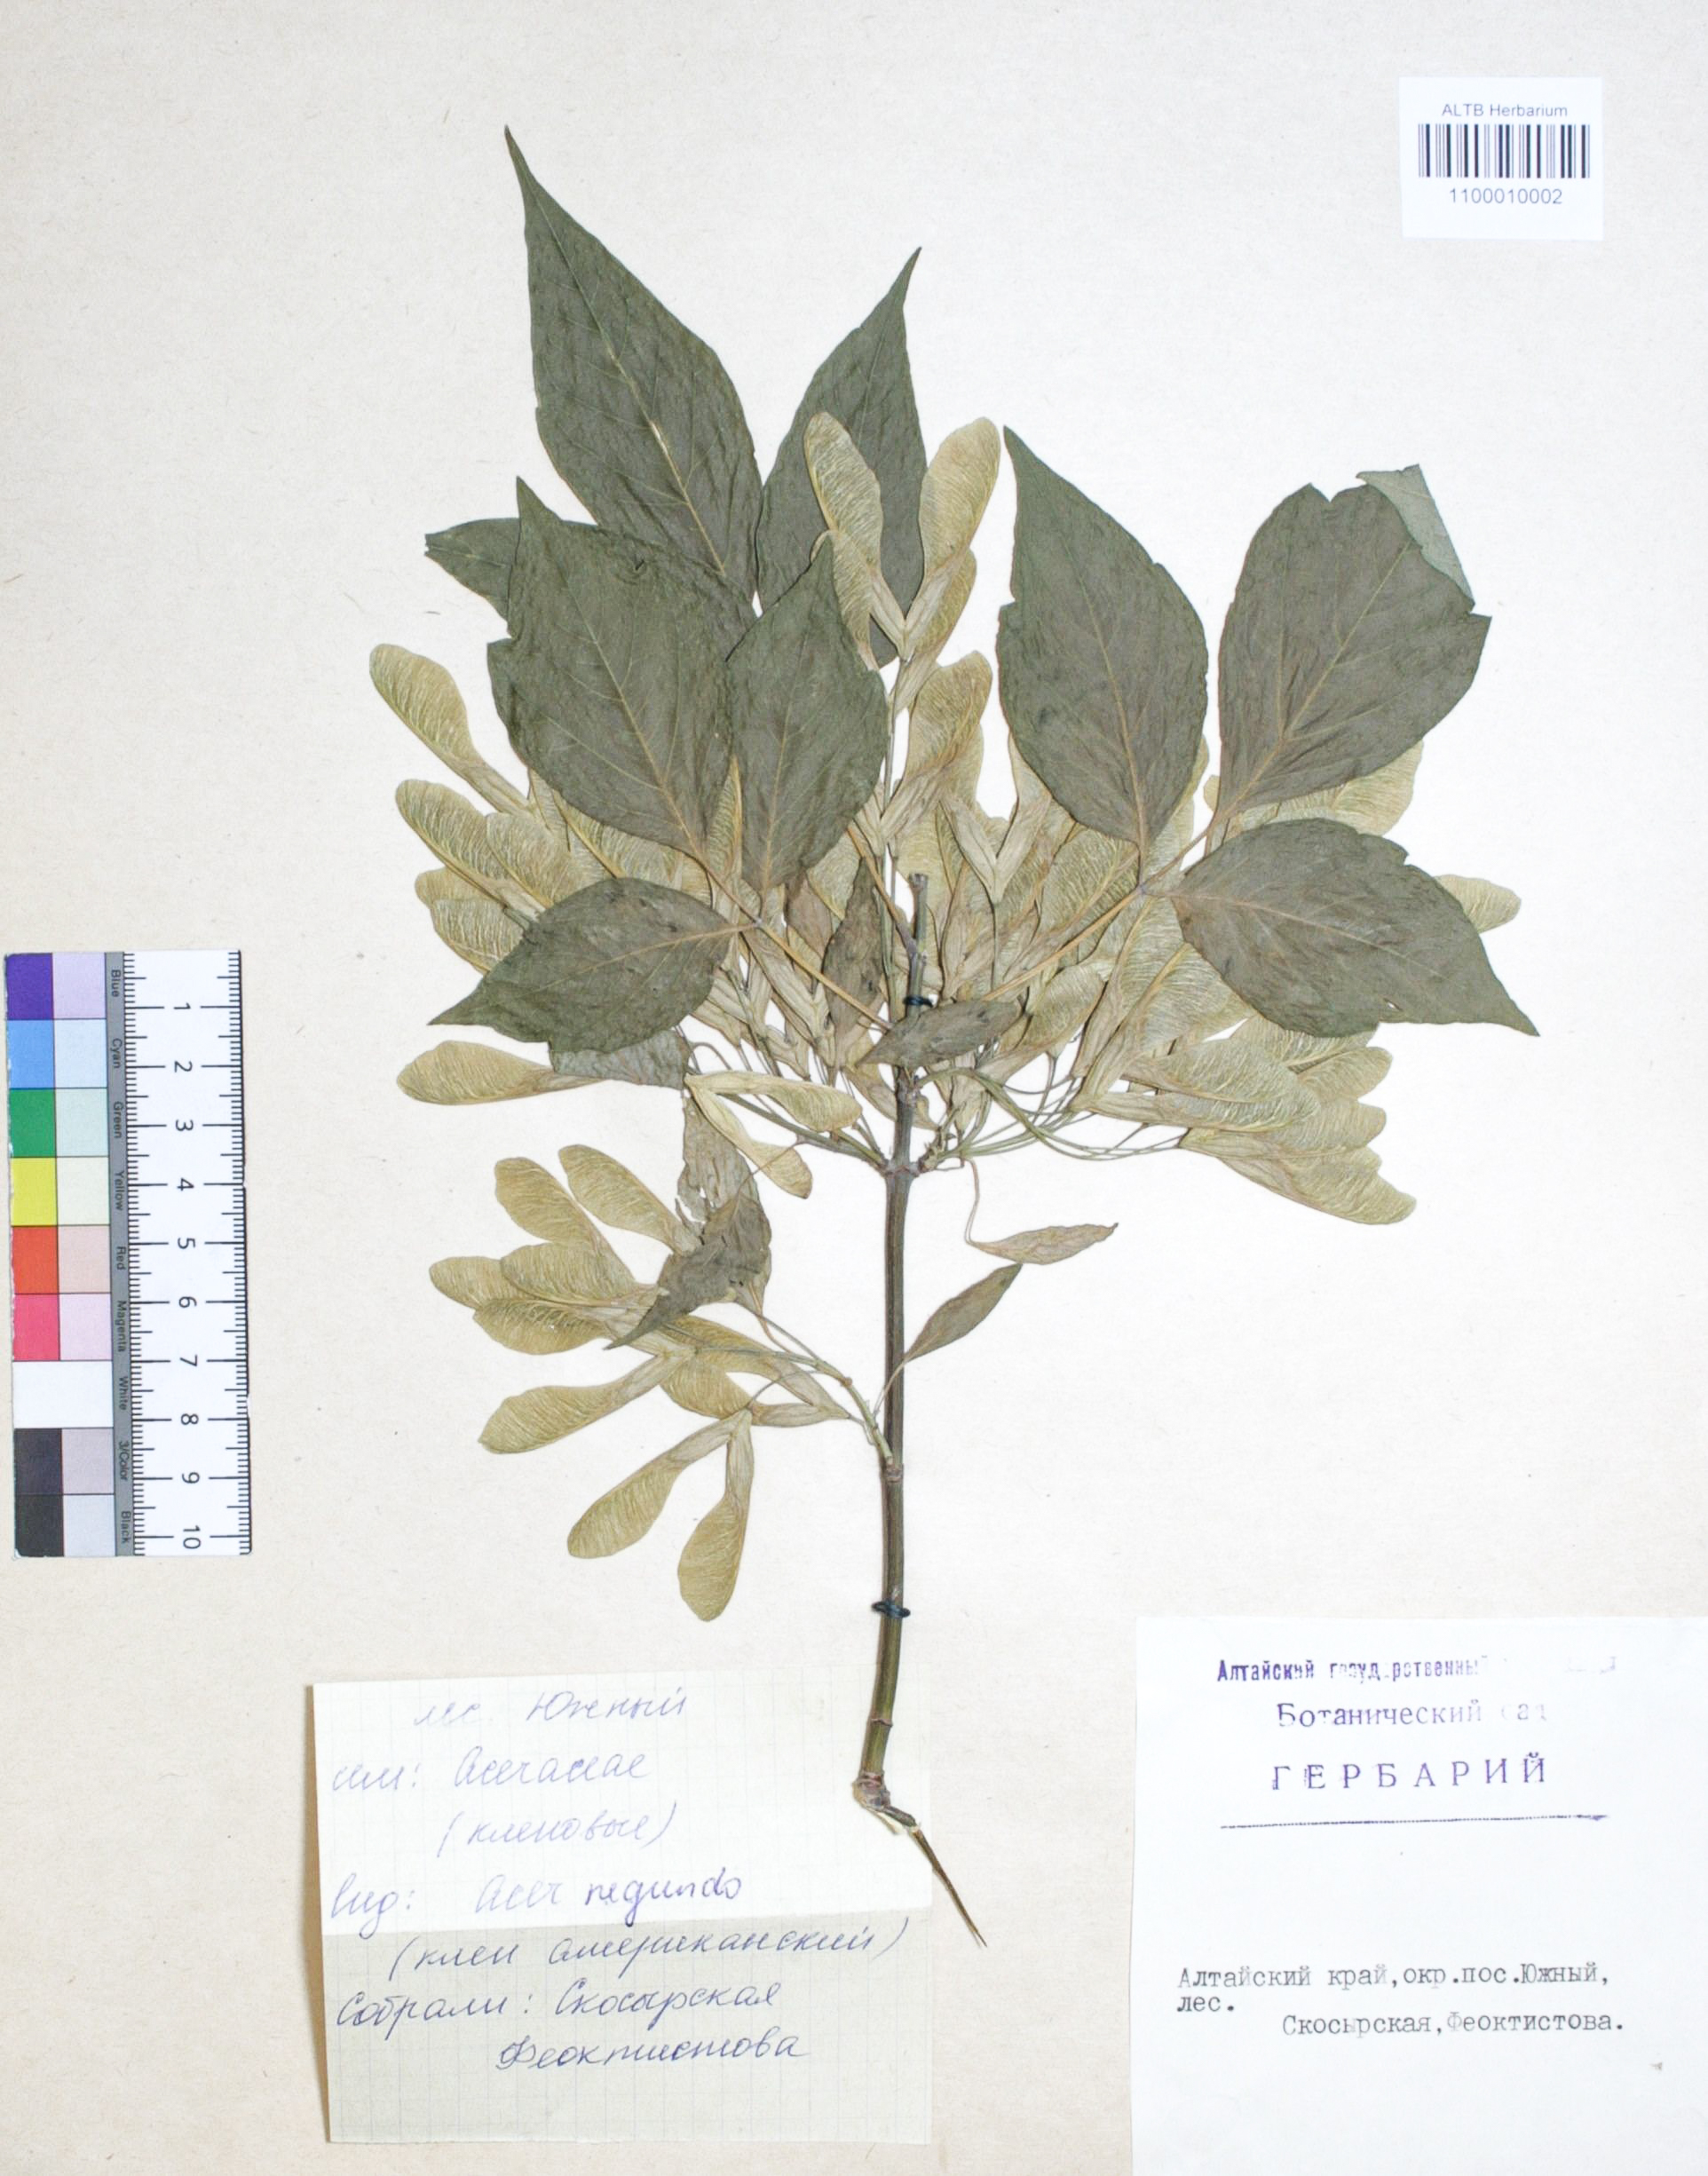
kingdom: Plantae
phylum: Tracheophyta
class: Magnoliopsida
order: Sapindales
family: Sapindaceae
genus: Acer
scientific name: Acer negundo
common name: Ashleaf maple
